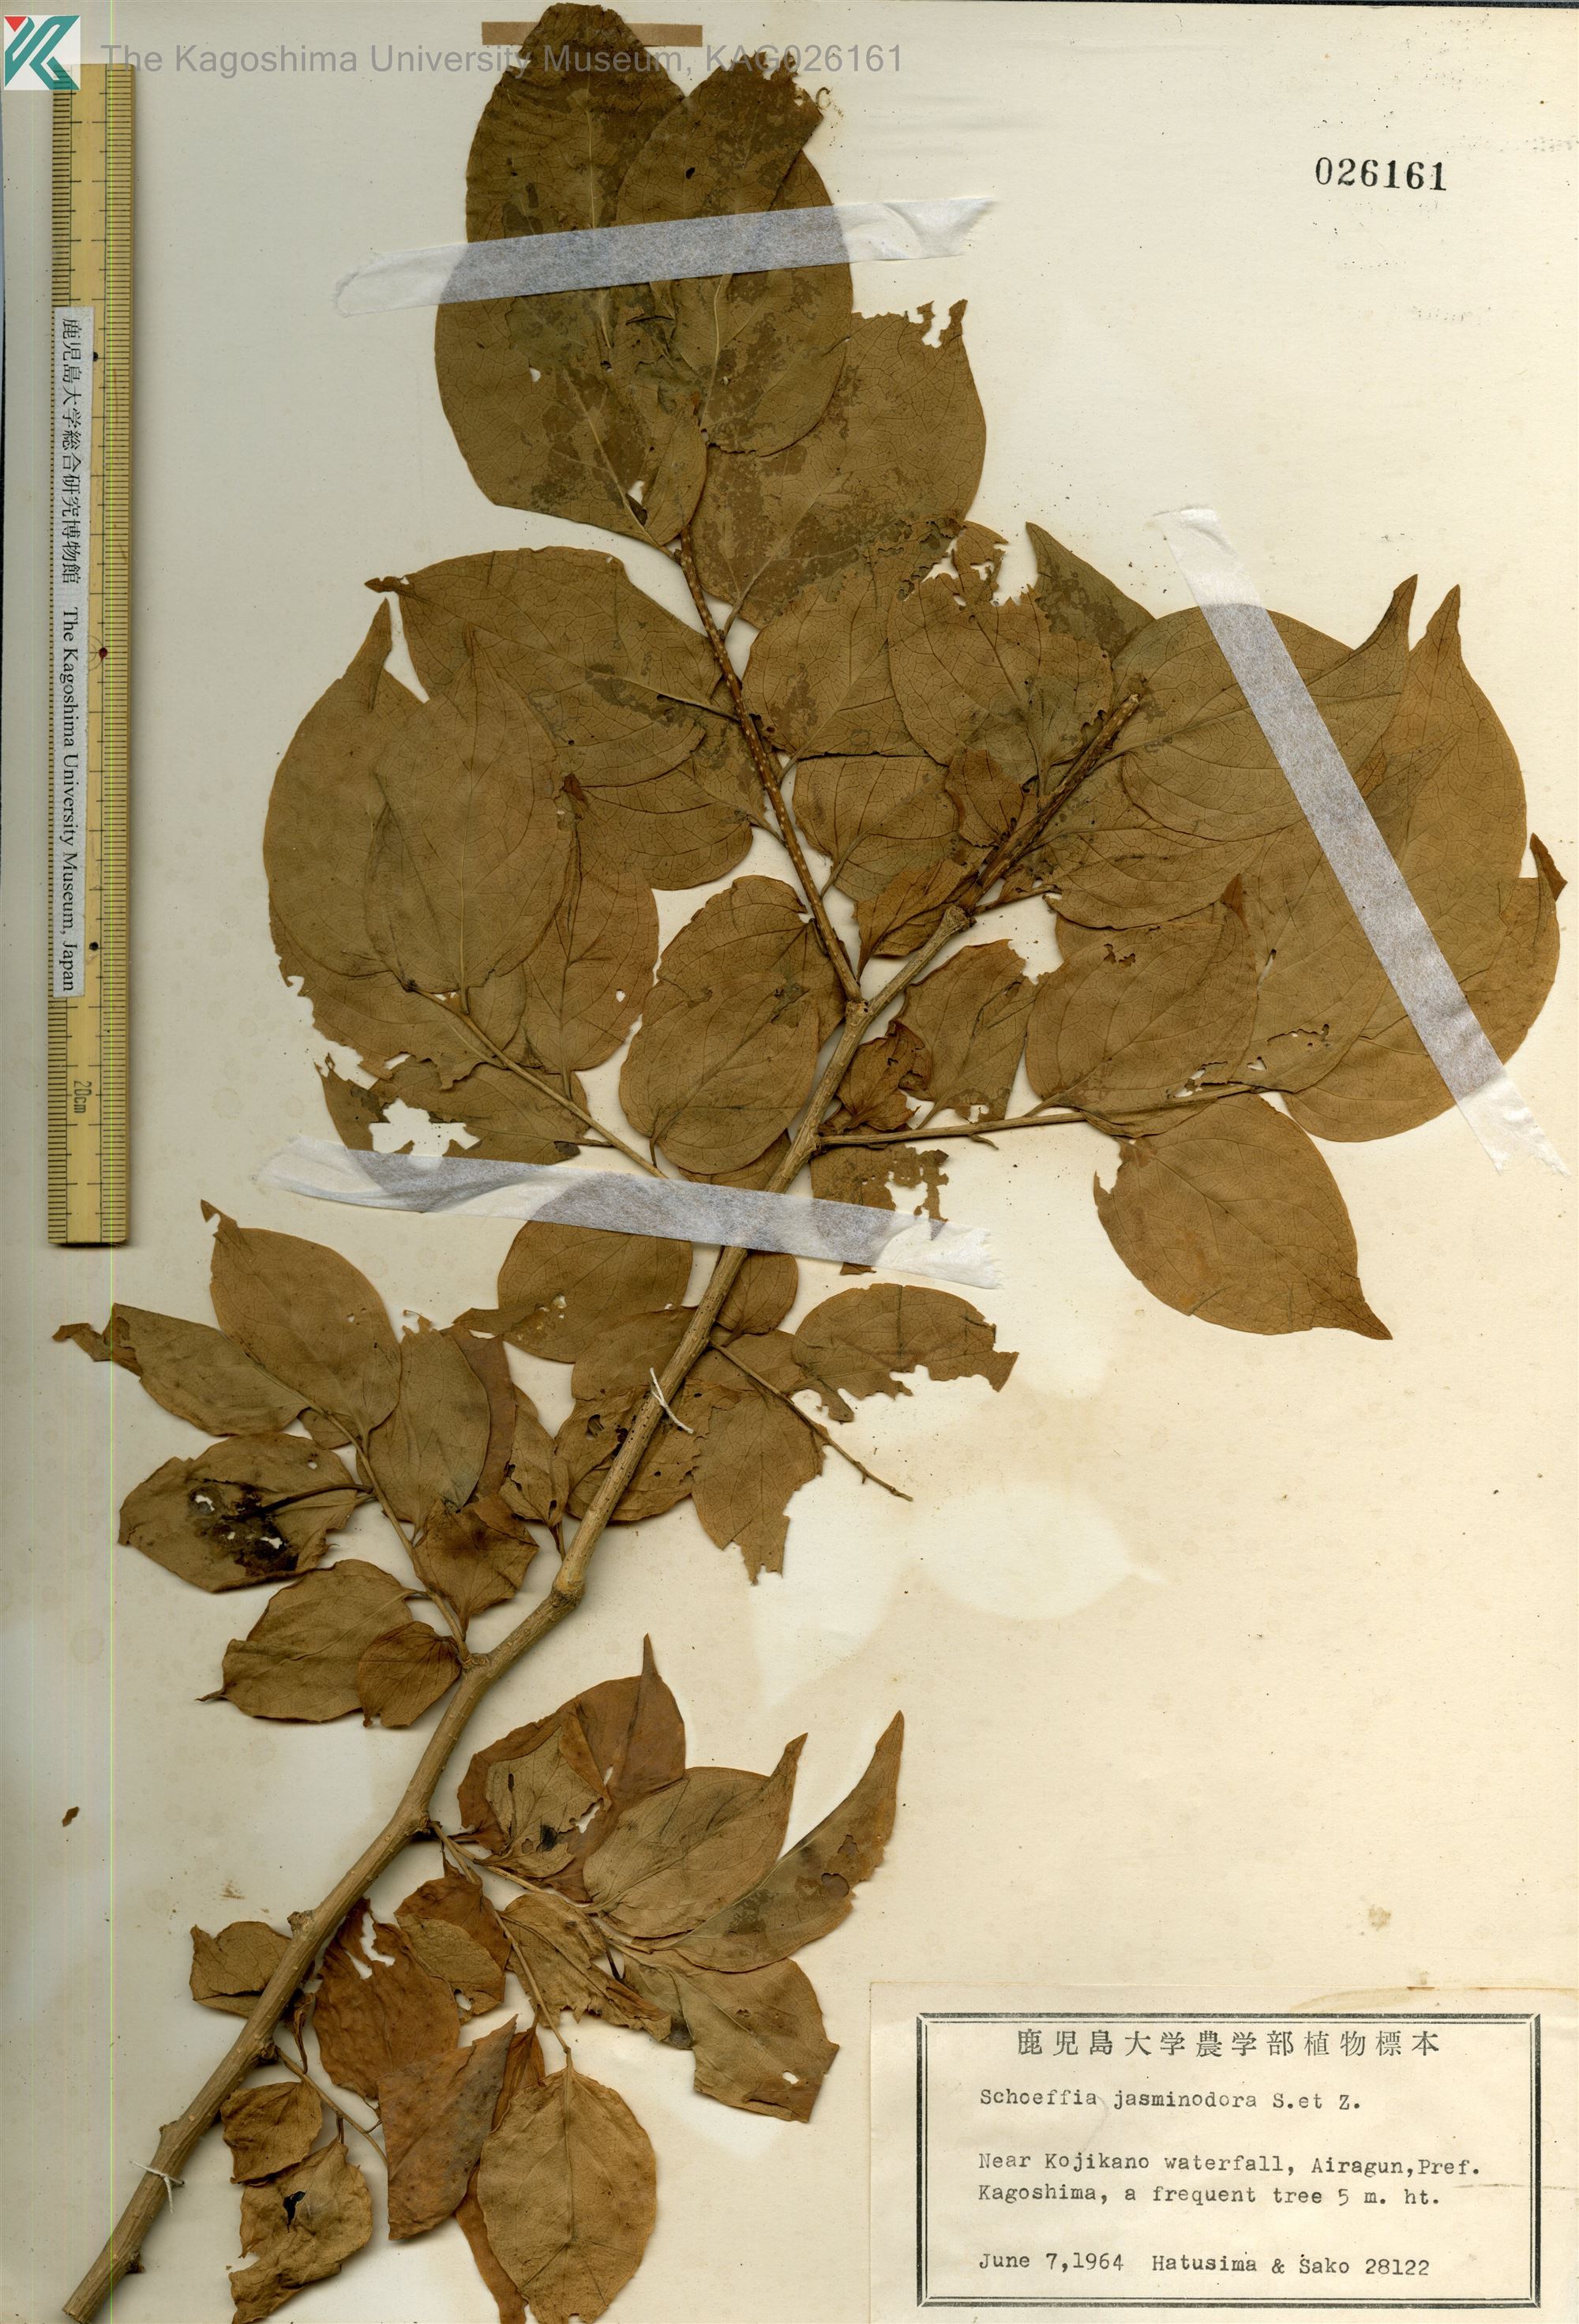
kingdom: Plantae
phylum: Tracheophyta
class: Magnoliopsida
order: Santalales
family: Schoepfiaceae
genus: Schoepfia
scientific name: Schoepfia jasminodora
